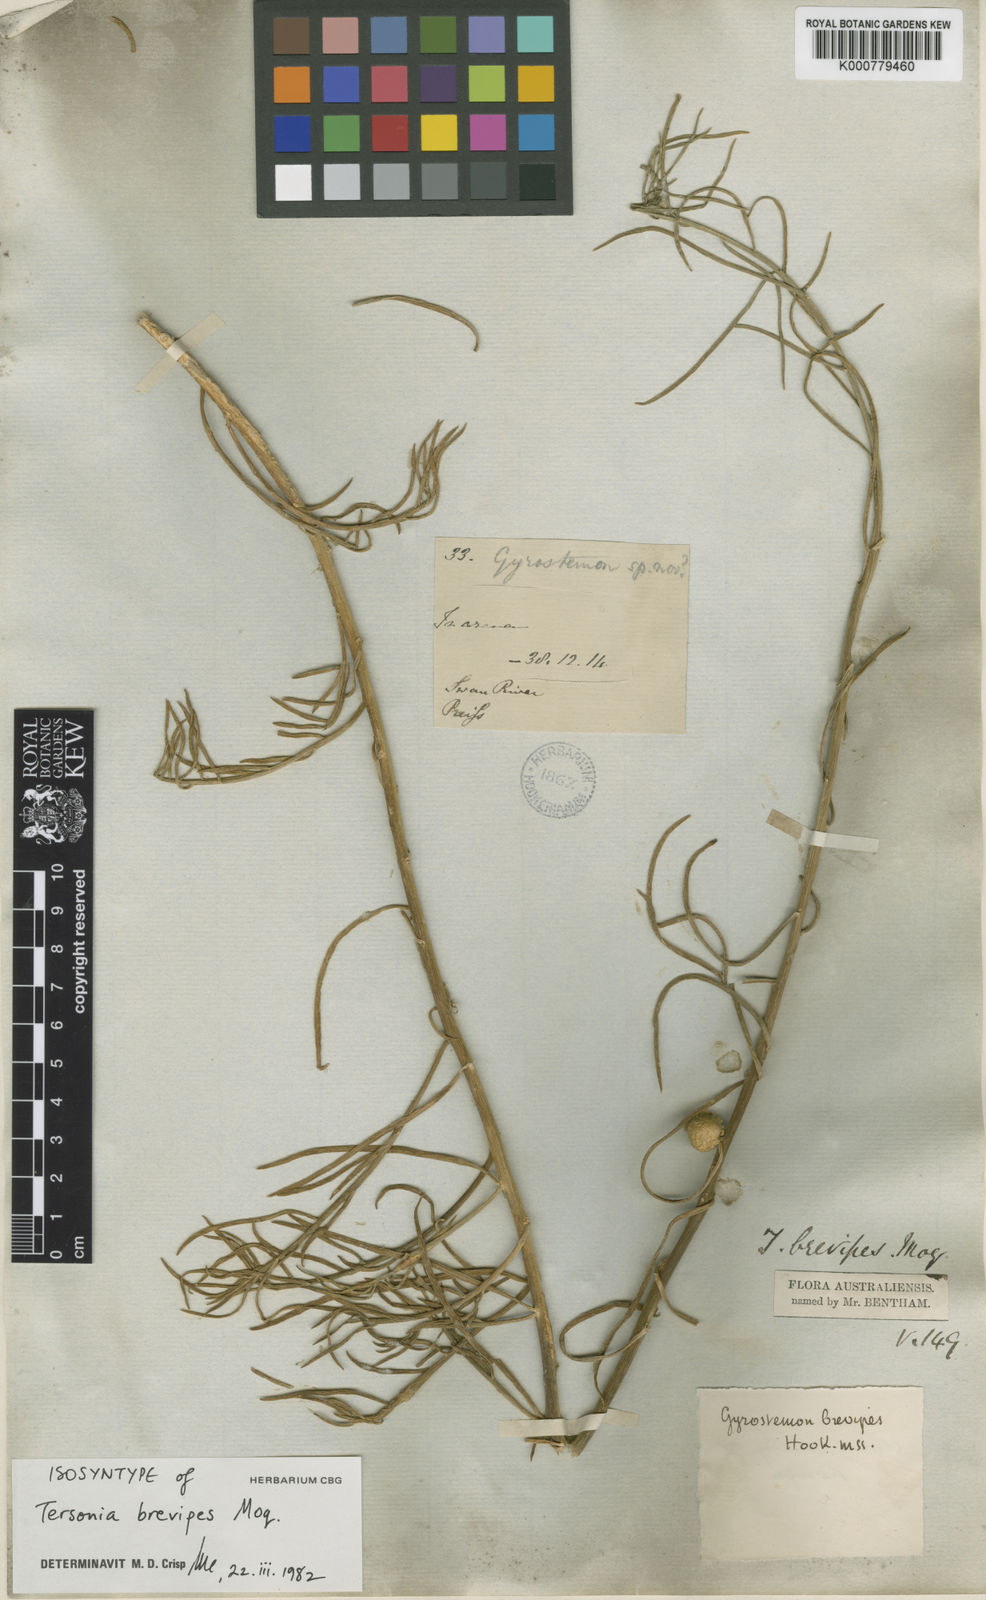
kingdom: Plantae
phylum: Tracheophyta
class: Magnoliopsida
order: Brassicales
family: Gyrostemonaceae
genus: Tersonia
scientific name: Tersonia brevipes
